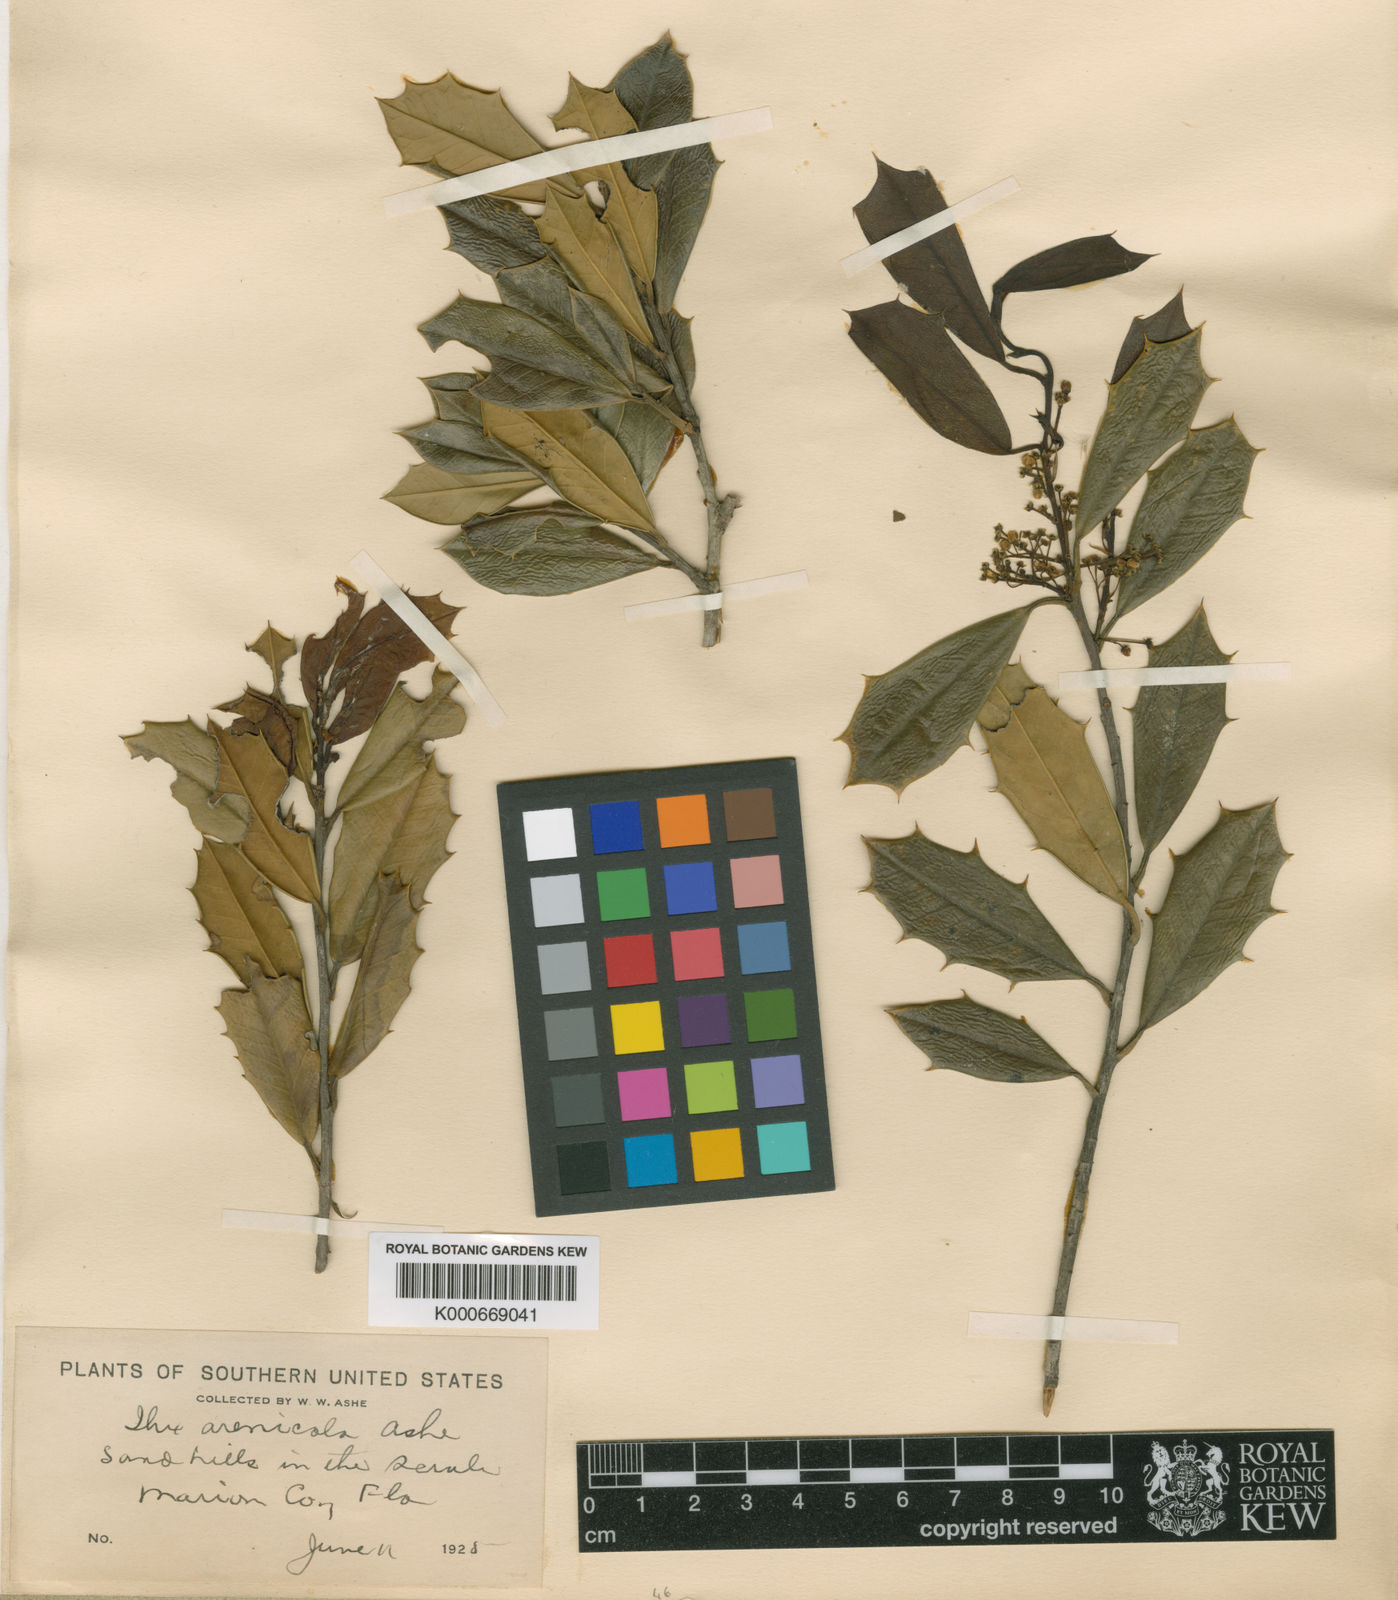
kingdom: Plantae
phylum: Tracheophyta
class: Magnoliopsida
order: Aquifoliales
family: Aquifoliaceae
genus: Ilex
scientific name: Ilex opaca
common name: American holly
